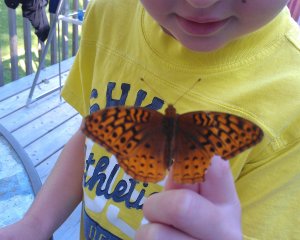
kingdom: Animalia
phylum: Arthropoda
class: Insecta
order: Lepidoptera
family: Nymphalidae
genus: Speyeria
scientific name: Speyeria cybele
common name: Great Spangled Fritillary
